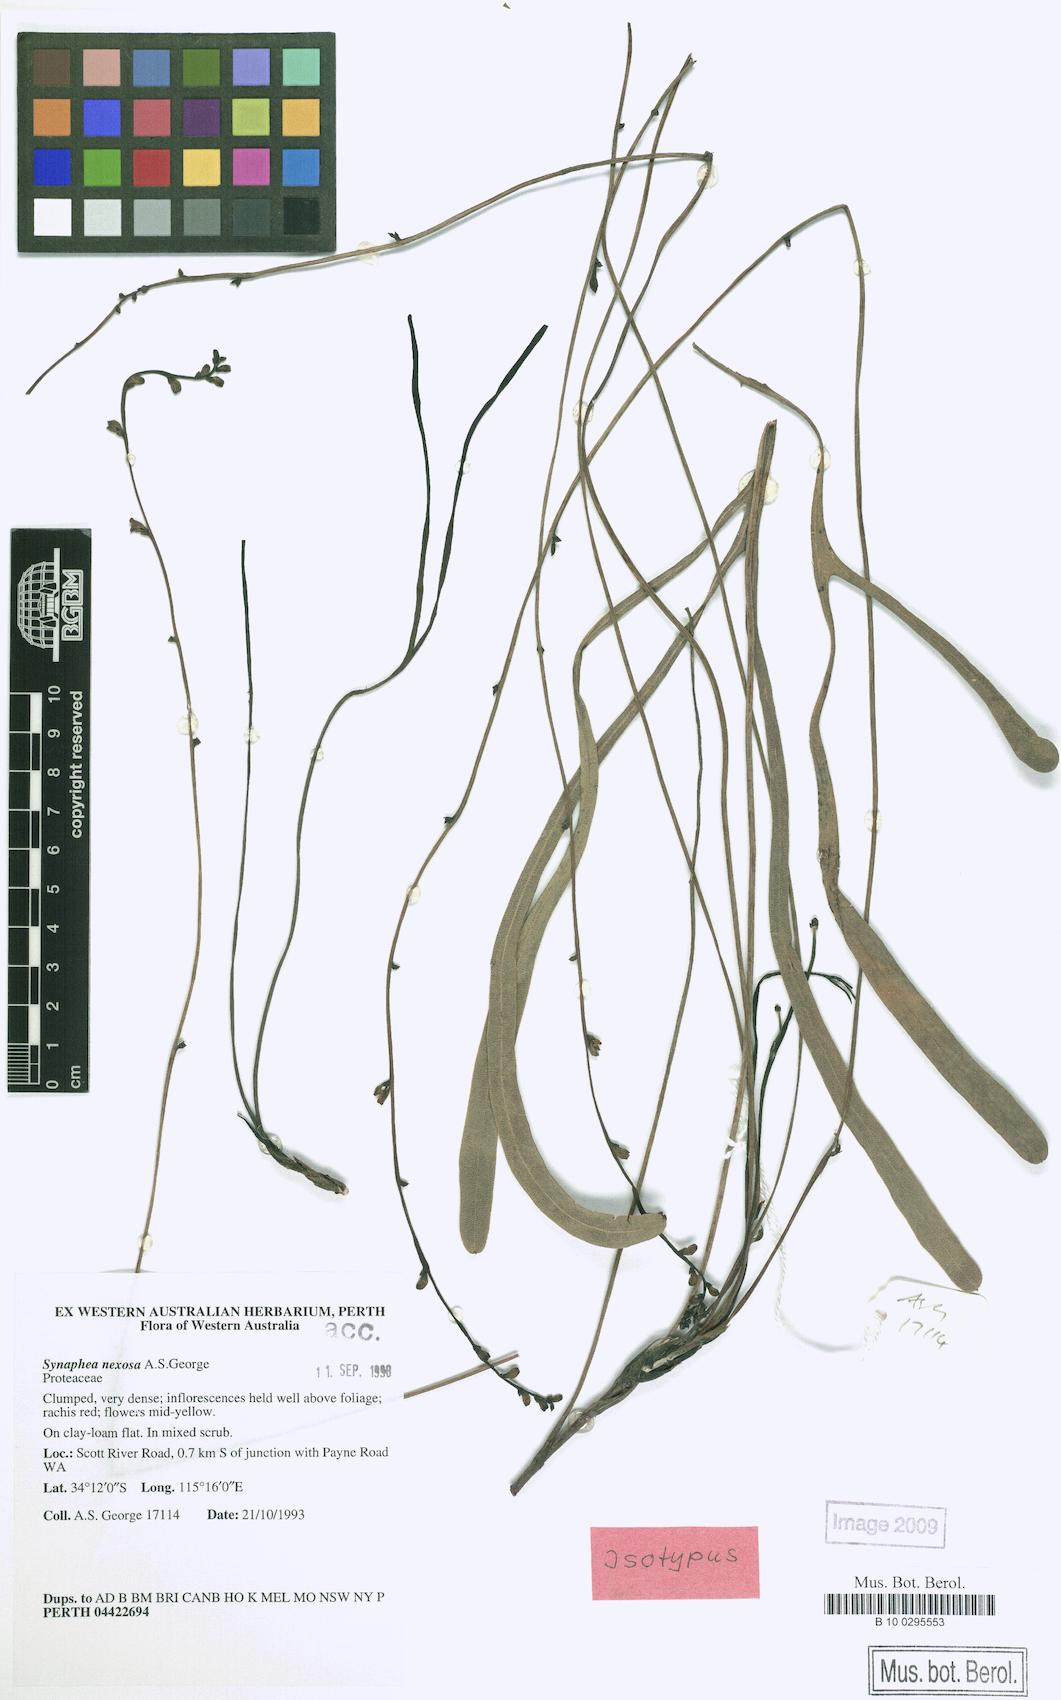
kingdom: Plantae
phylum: Tracheophyta
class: Magnoliopsida
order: Proteales
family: Proteaceae
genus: Synaphea
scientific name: Synaphea nexosa
